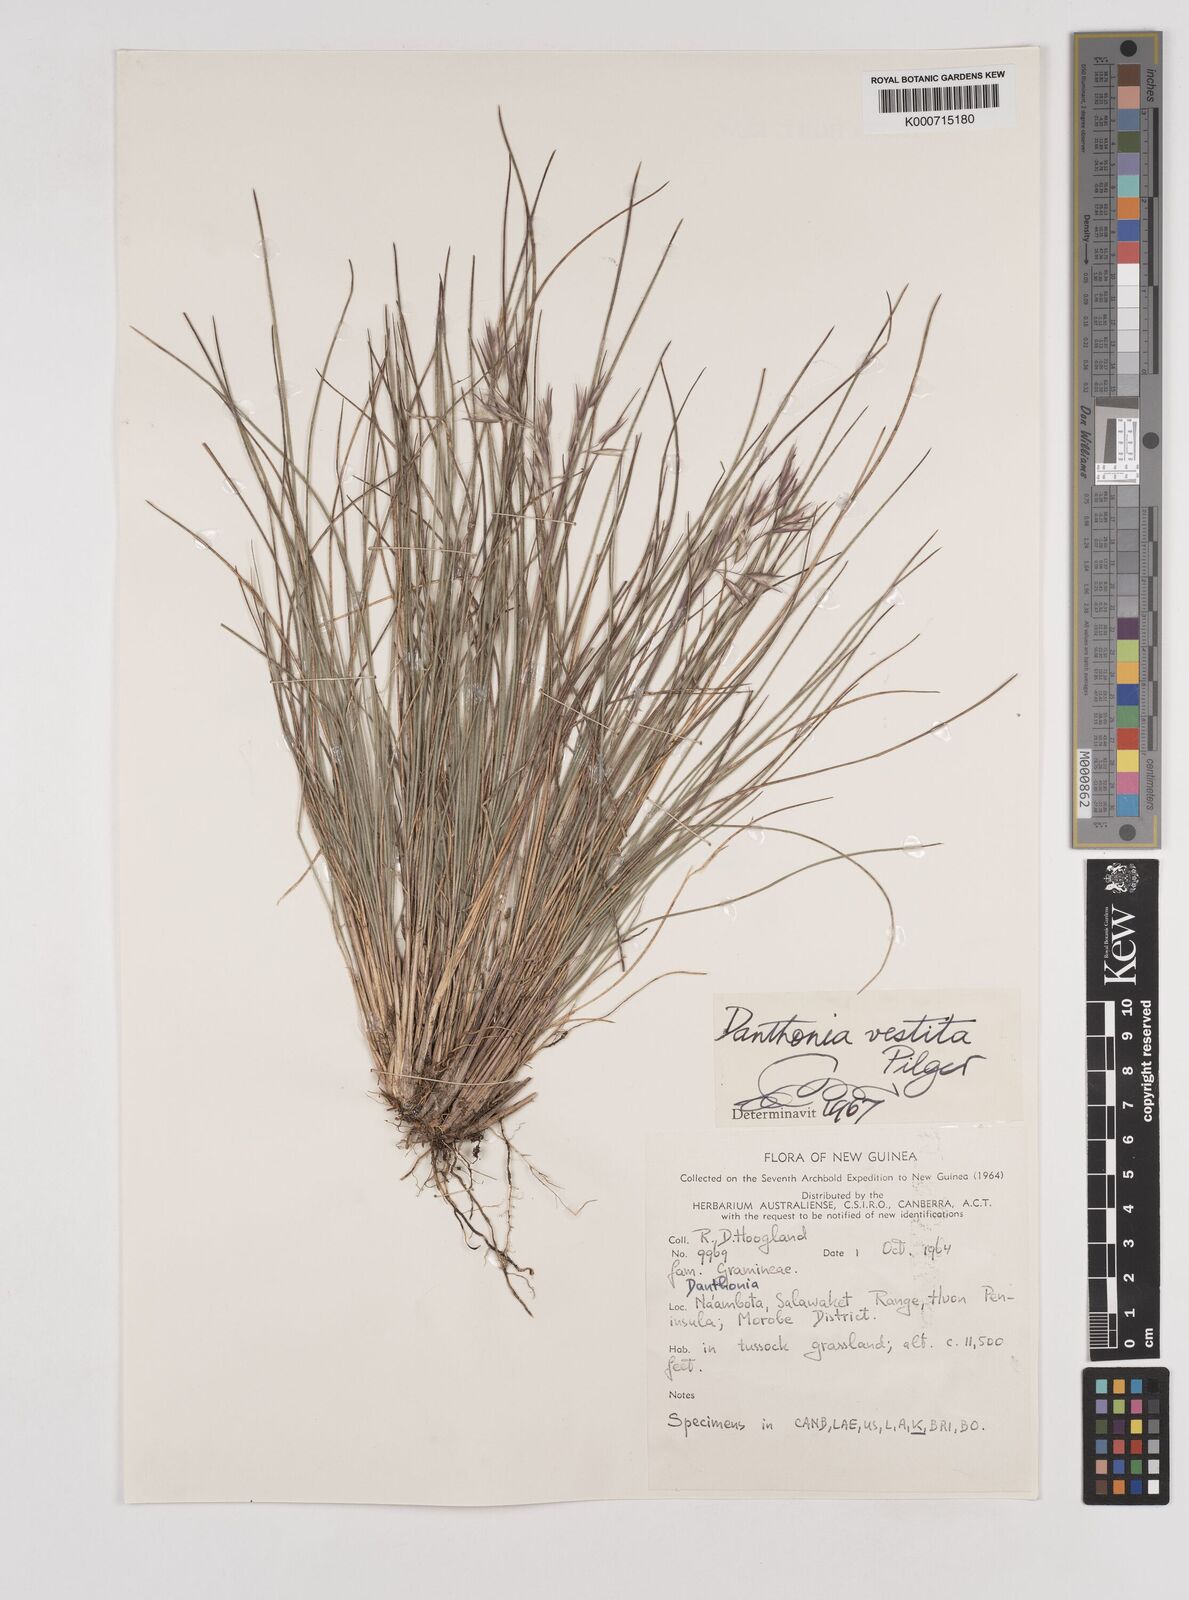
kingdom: Plantae
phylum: Tracheophyta
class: Liliopsida
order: Poales
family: Poaceae
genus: Rytidosperma
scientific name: Rytidosperma vestitum
